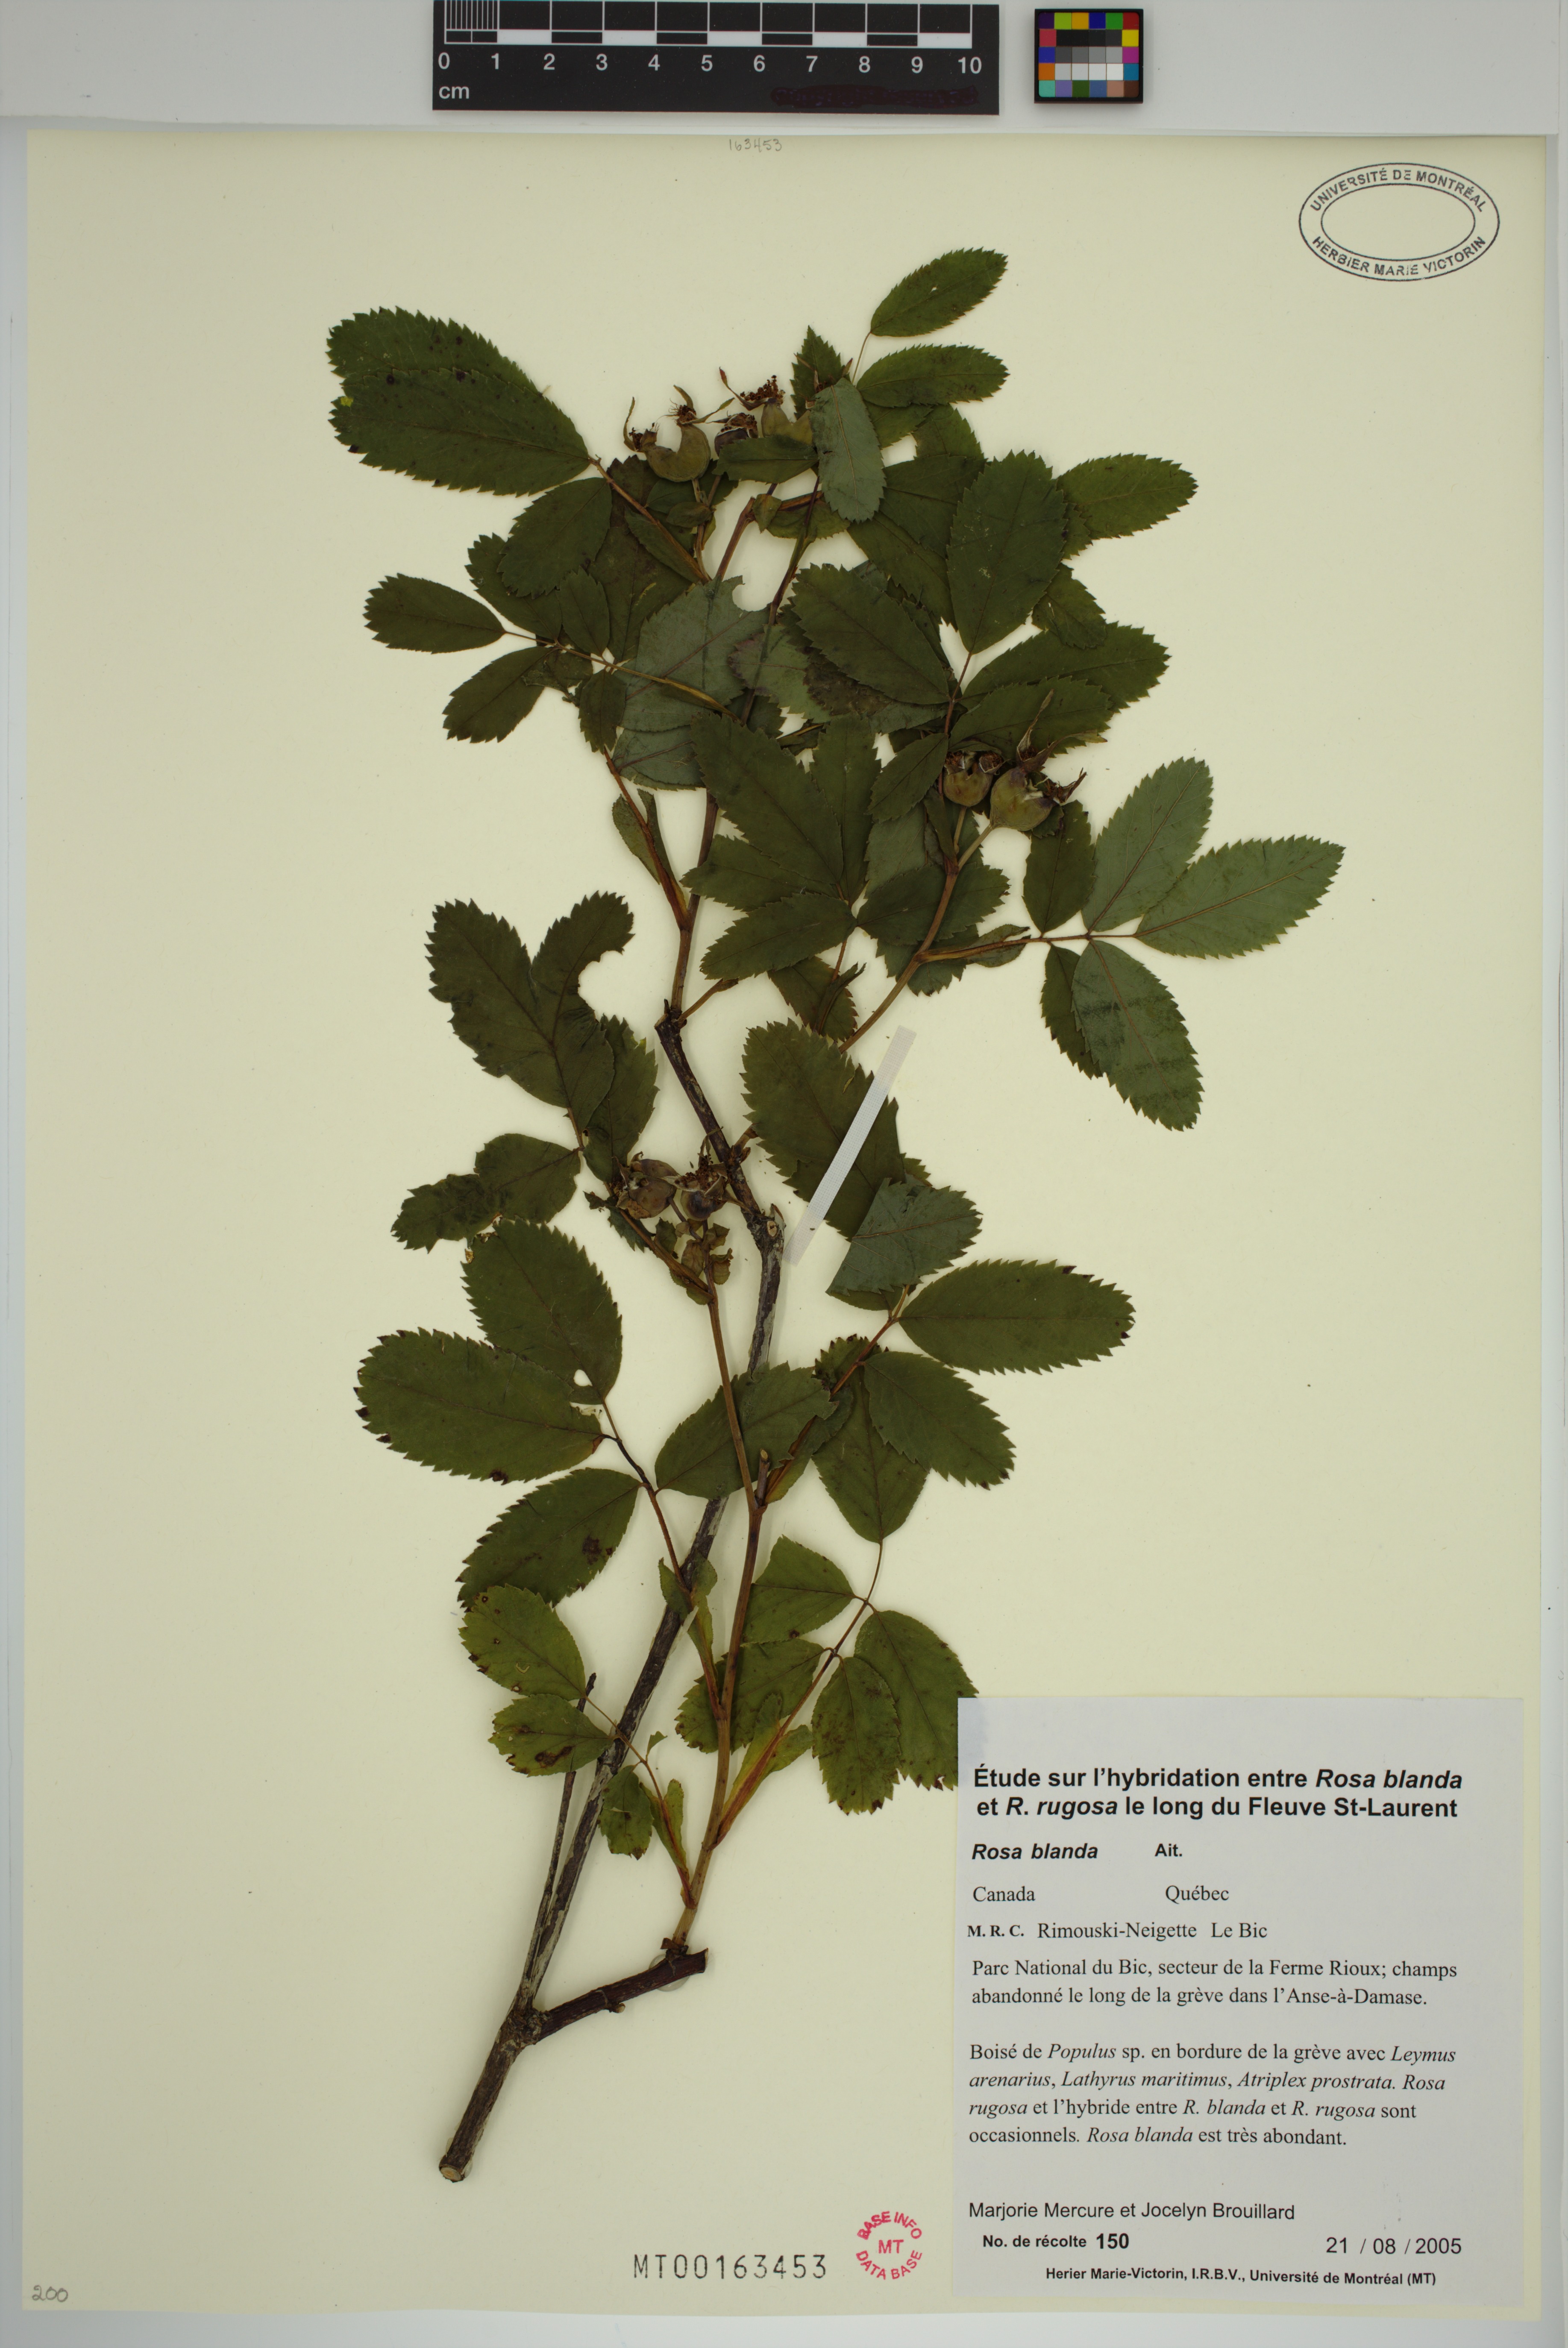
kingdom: Plantae
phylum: Tracheophyta
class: Magnoliopsida
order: Rosales
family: Rosaceae
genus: Rosa
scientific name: Rosa blanda
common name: Smooth rose
